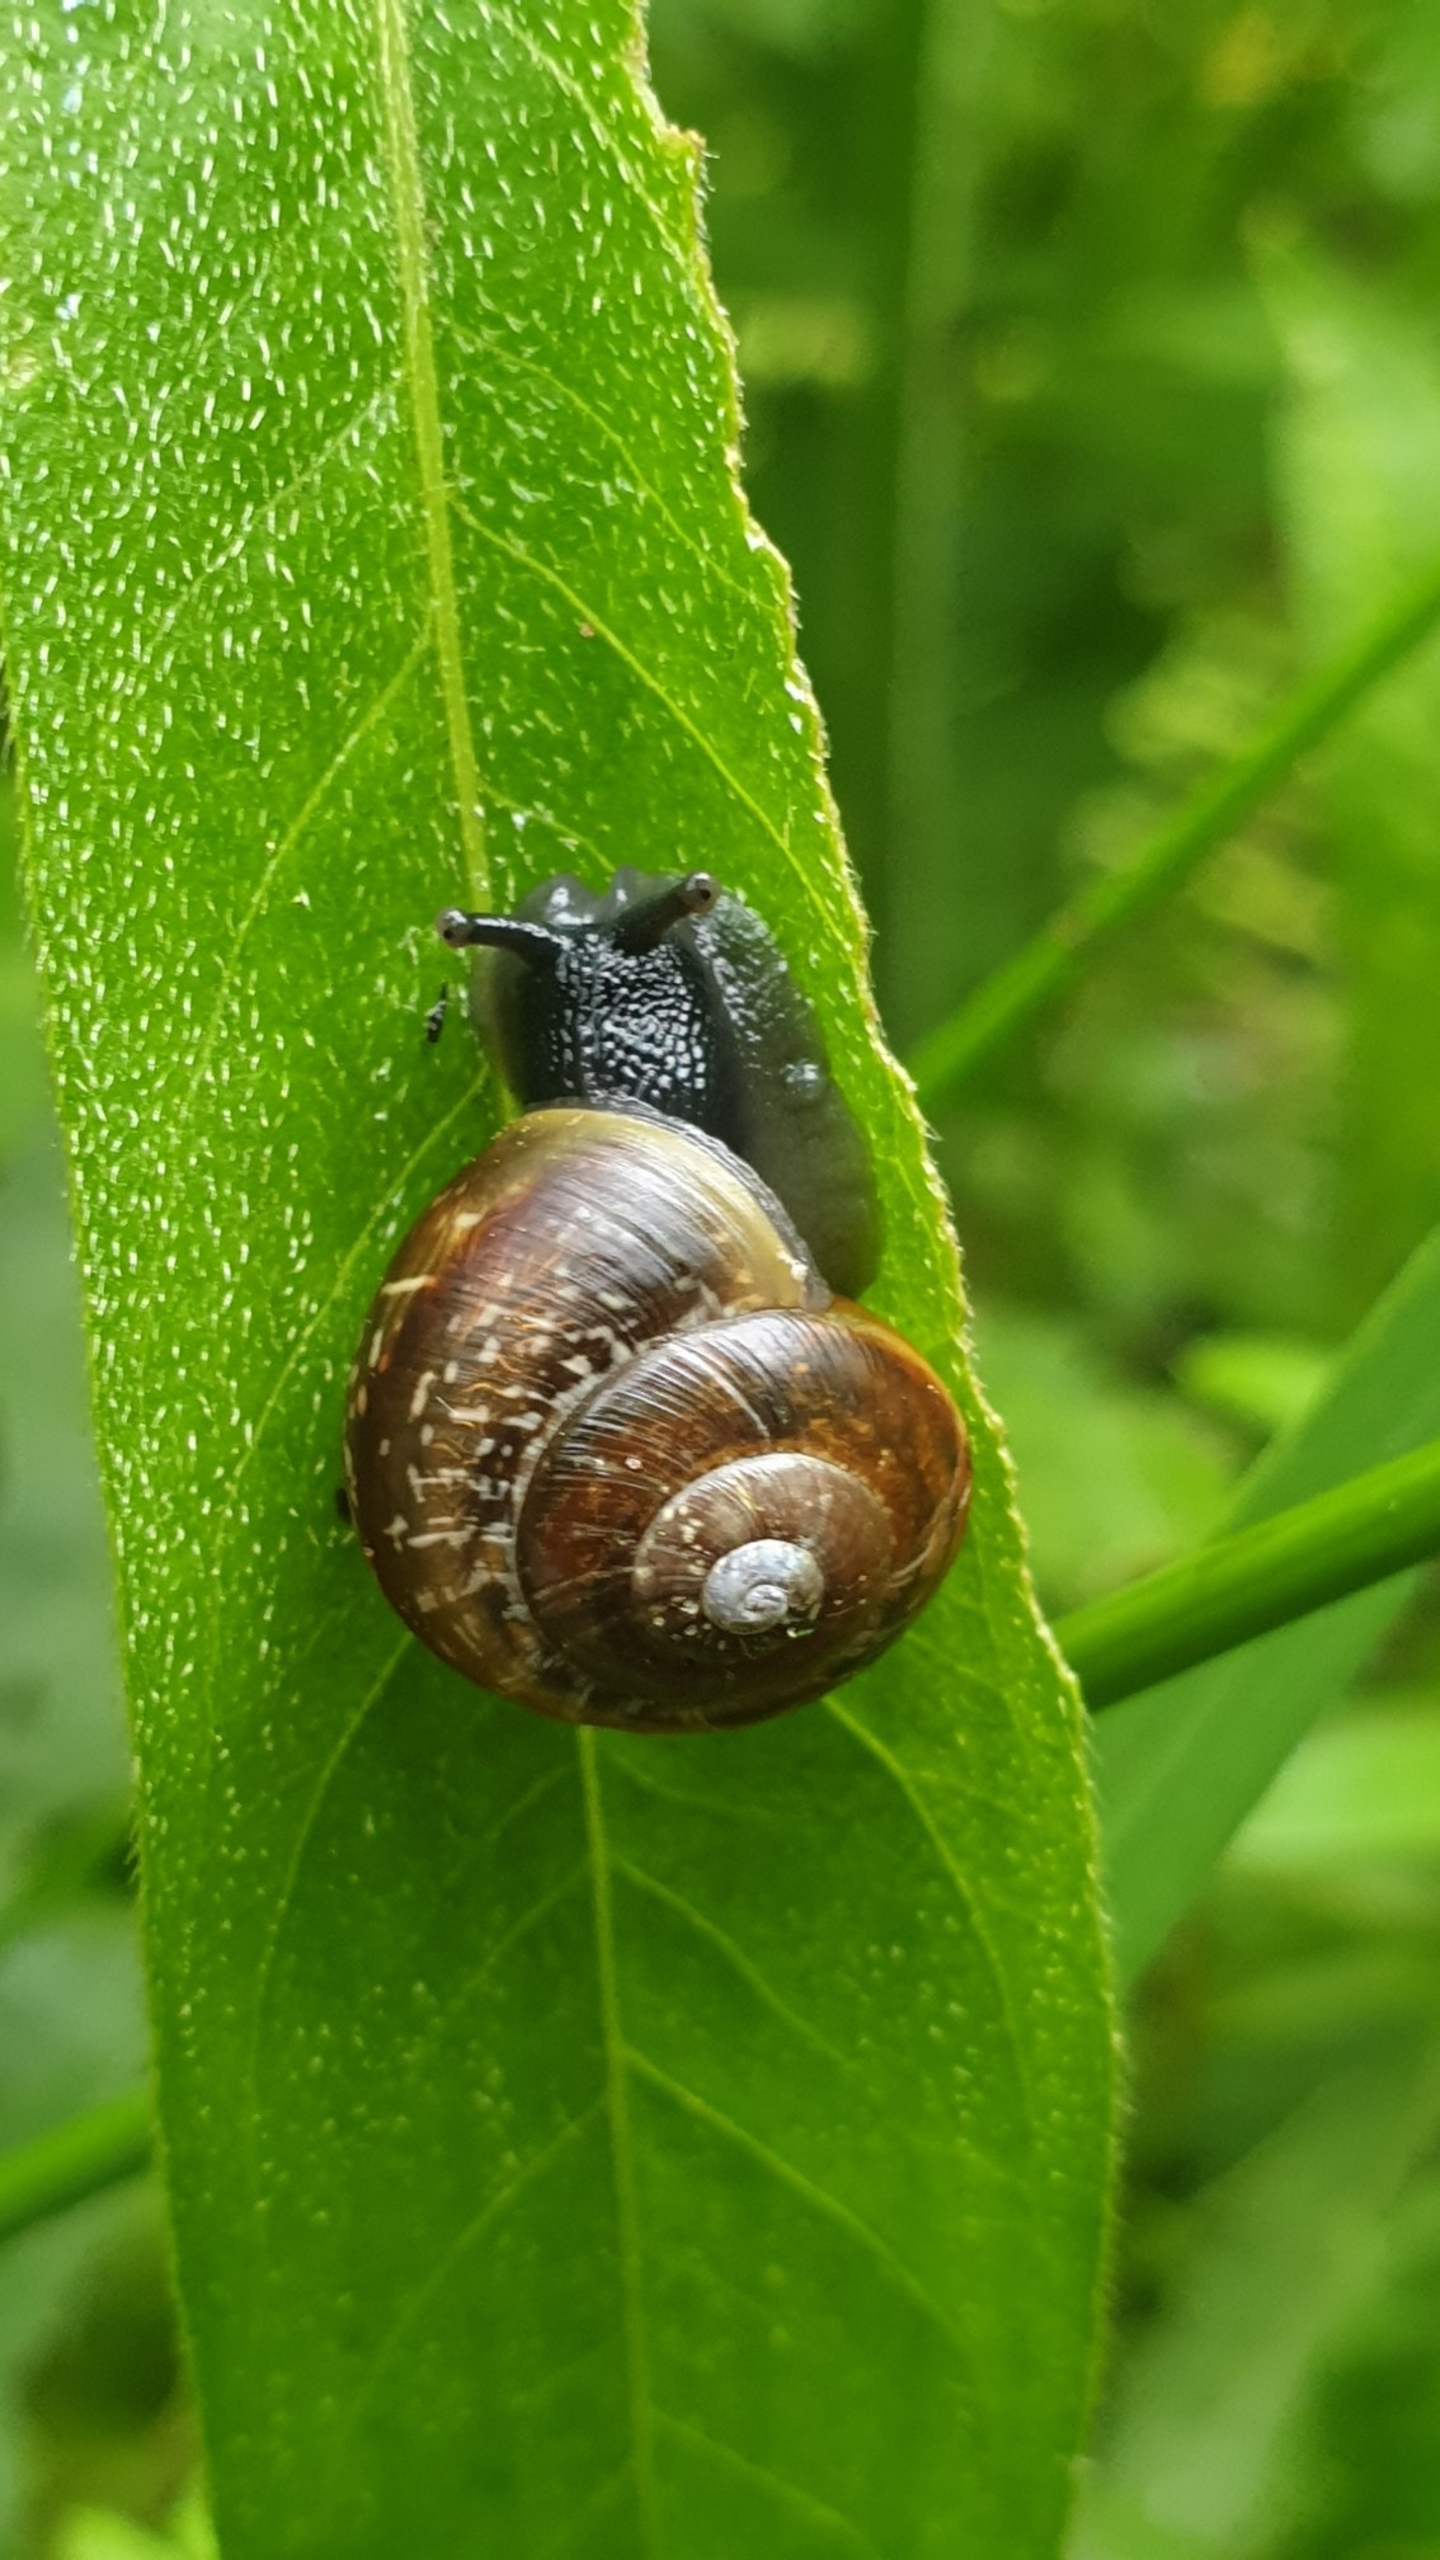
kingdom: Animalia
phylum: Mollusca
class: Gastropoda
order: Stylommatophora
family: Helicidae
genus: Arianta
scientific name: Arianta arbustorum
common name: Kratsnegl
